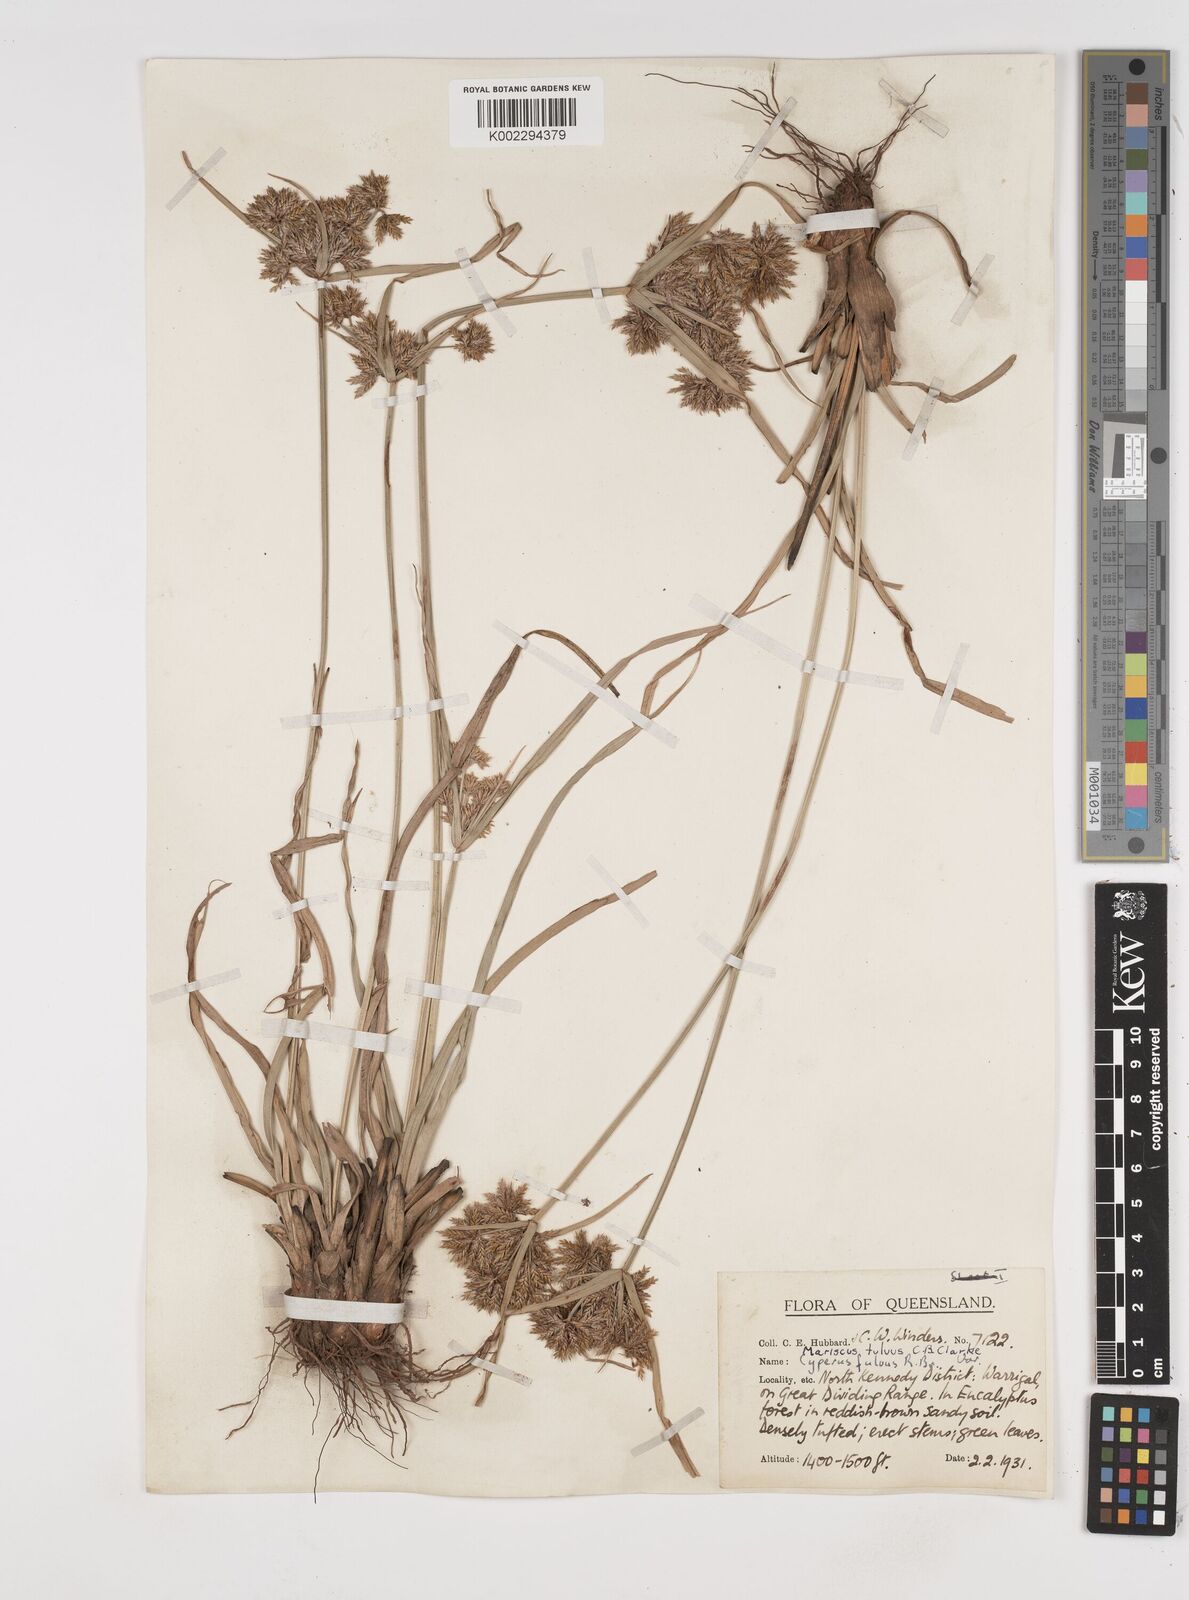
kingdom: Plantae
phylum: Tracheophyta
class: Liliopsida
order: Poales
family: Cyperaceae
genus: Cyperus
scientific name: Cyperus fulvus
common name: Sticky sedge
